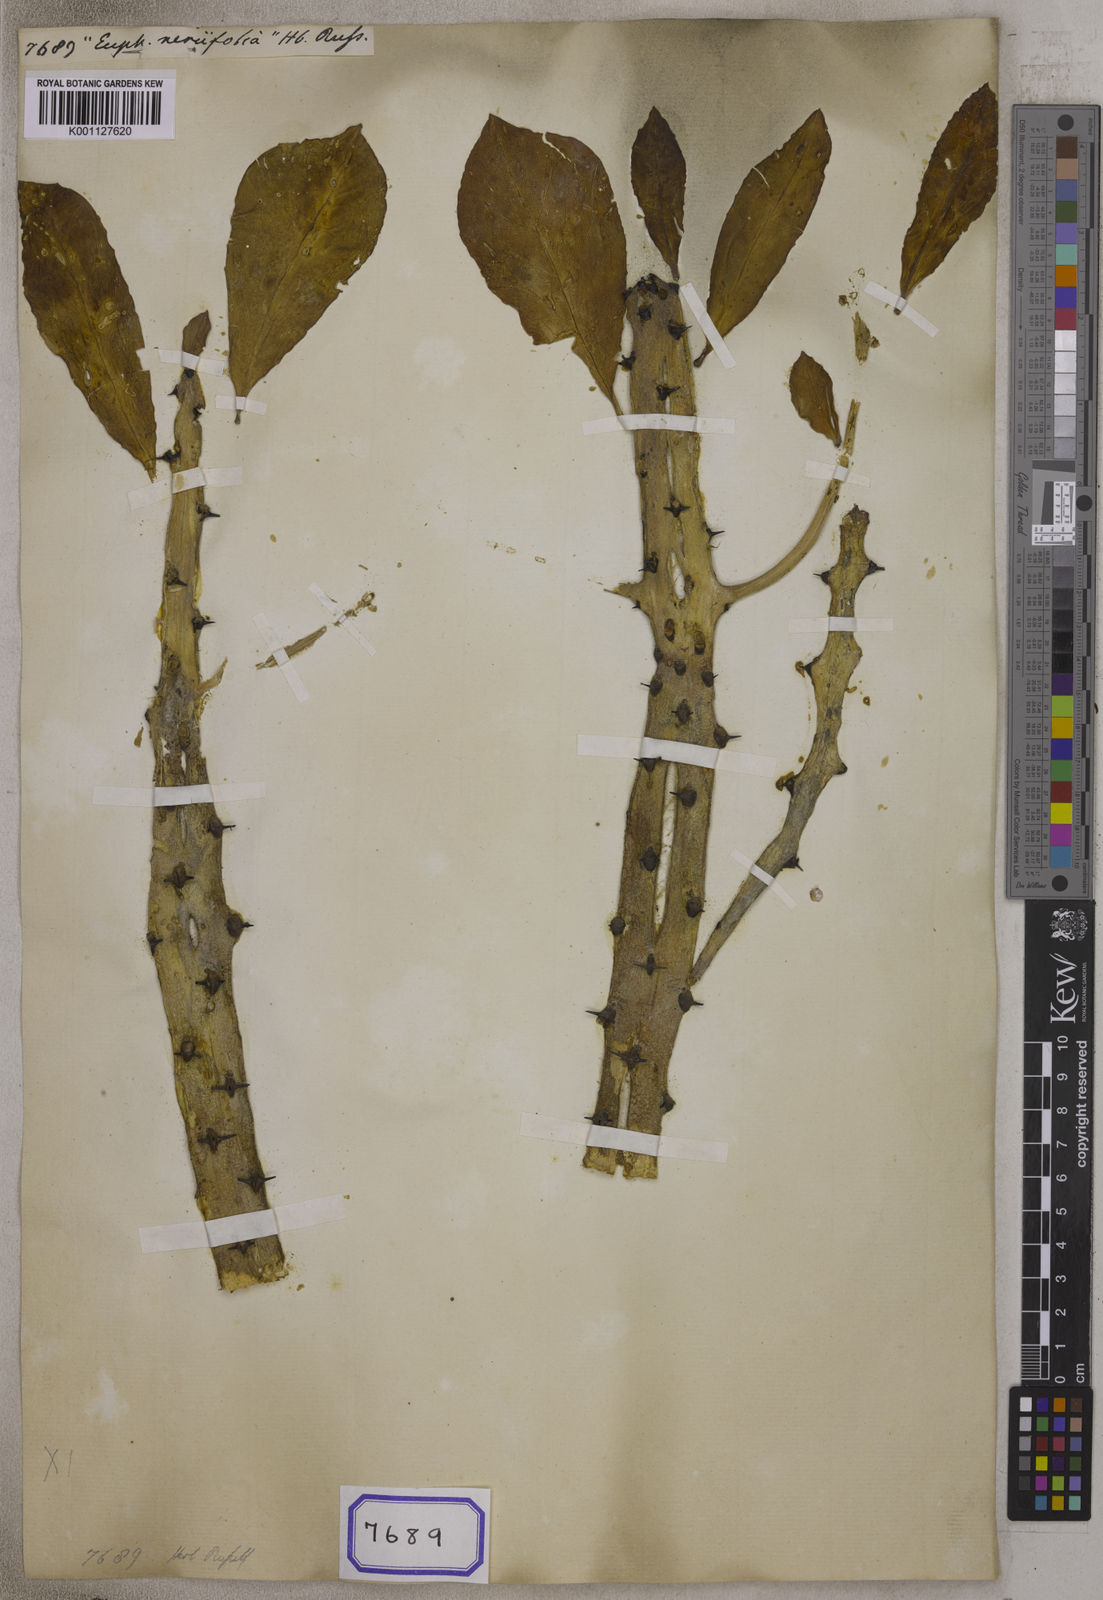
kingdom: Plantae
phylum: Tracheophyta
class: Magnoliopsida
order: Malpighiales
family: Euphorbiaceae
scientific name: Euphorbiaceae
